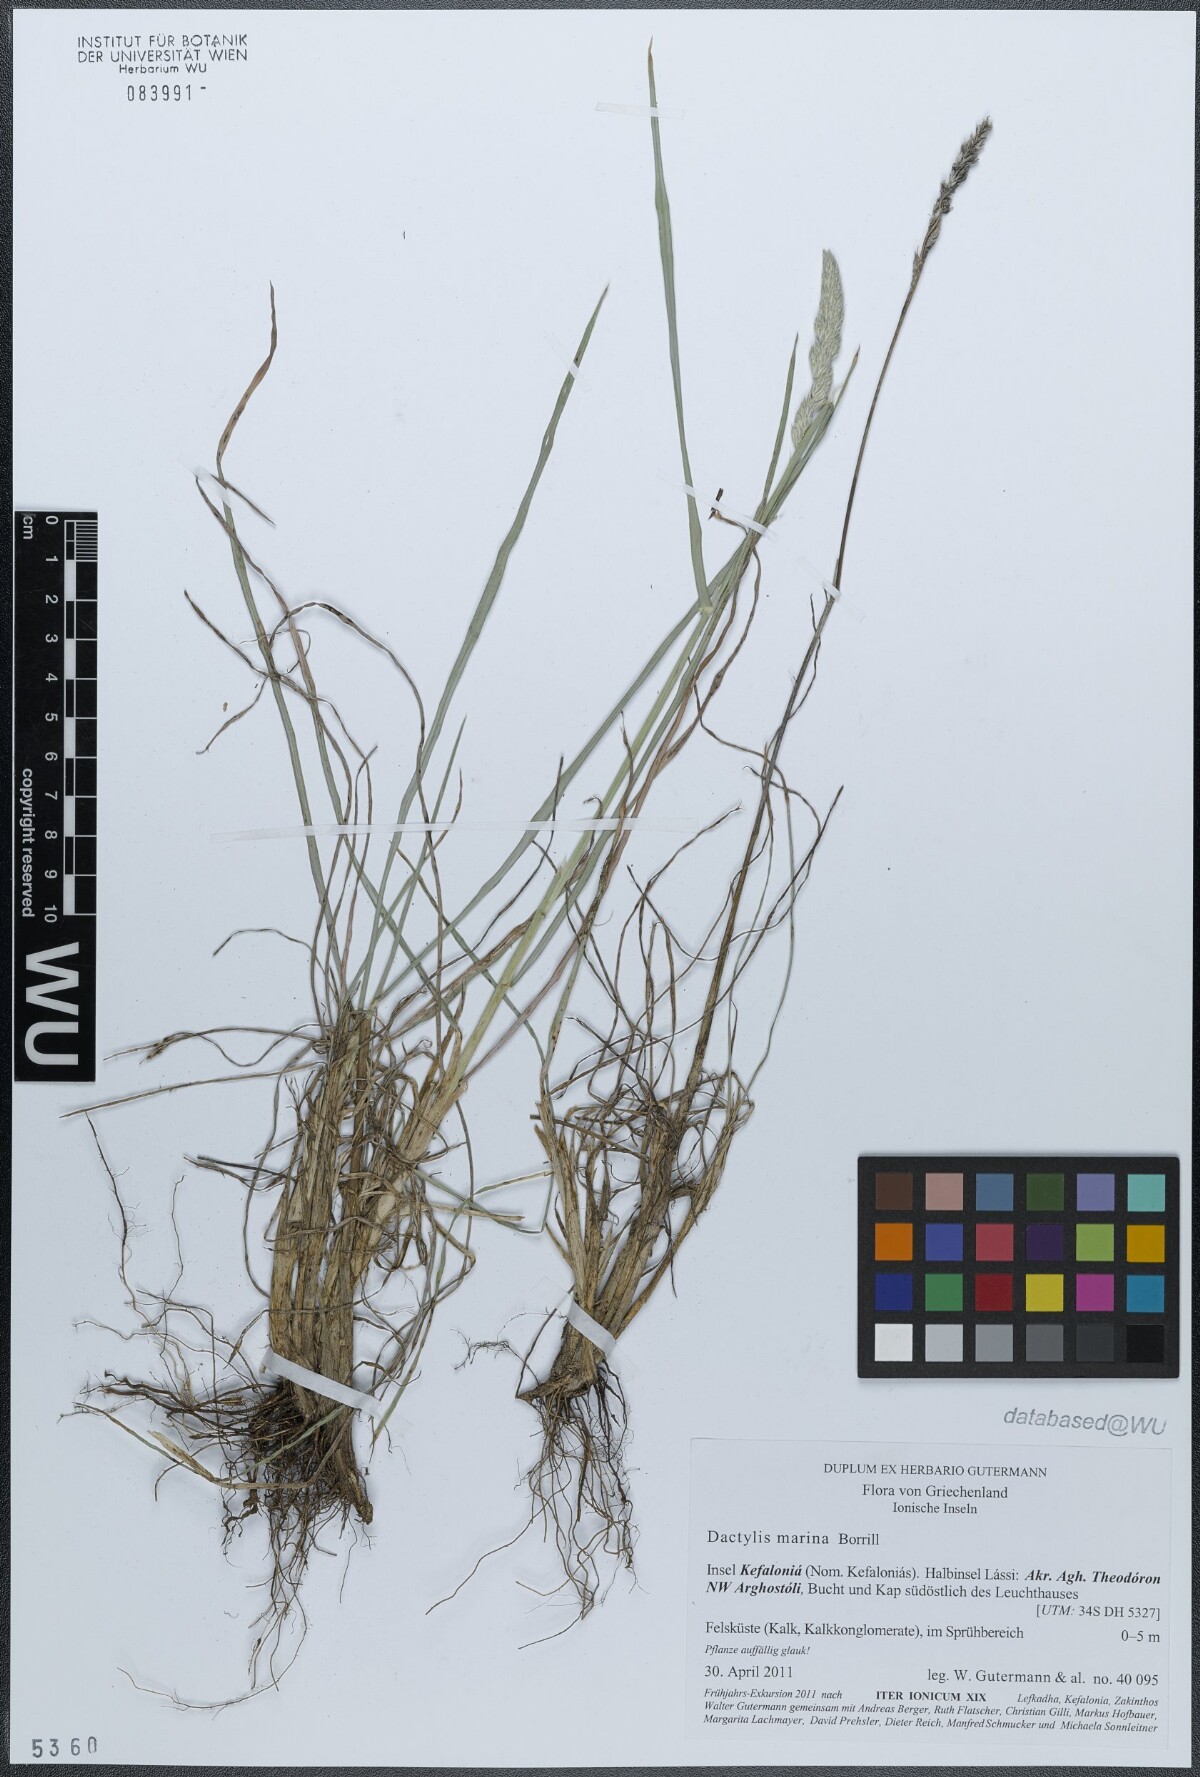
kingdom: Plantae
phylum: Tracheophyta
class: Liliopsida
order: Poales
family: Poaceae
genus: Dactylis
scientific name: Dactylis glomerata
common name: Orchardgrass
